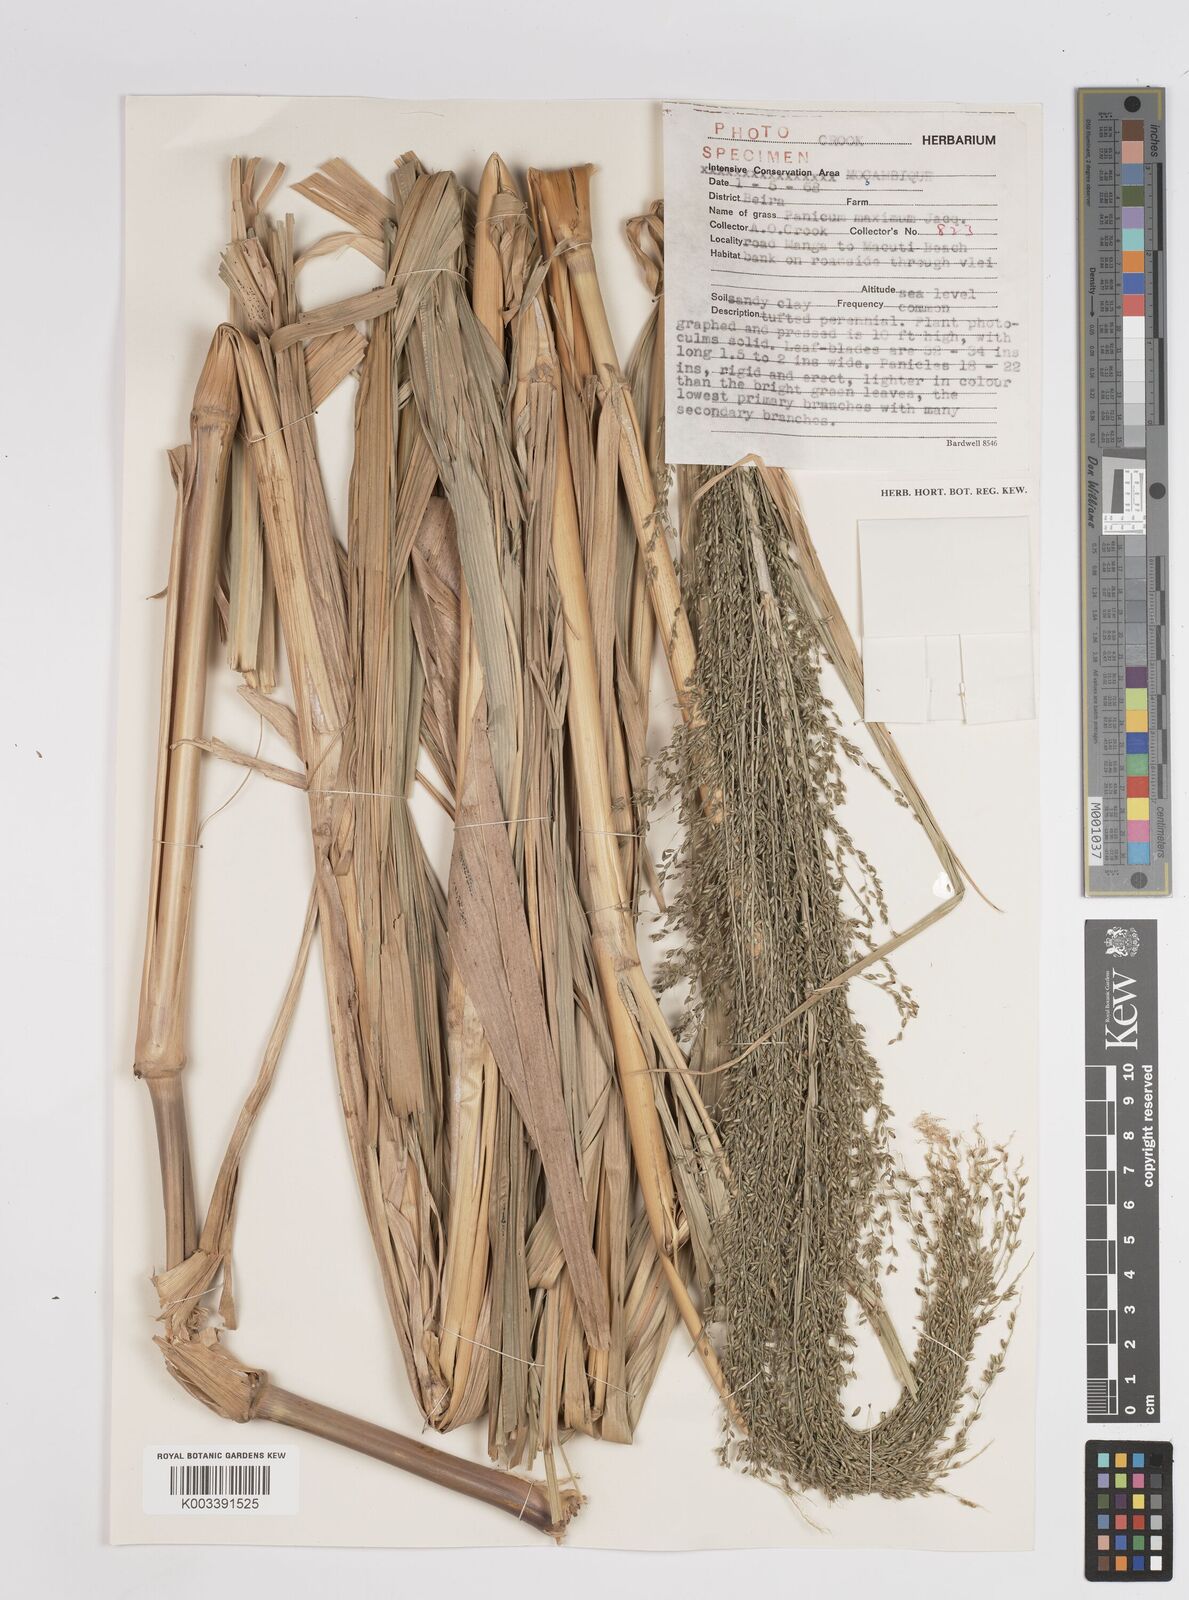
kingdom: Plantae
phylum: Tracheophyta
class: Liliopsida
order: Poales
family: Poaceae
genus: Megathyrsus
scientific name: Megathyrsus maximus
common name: Guineagrass
